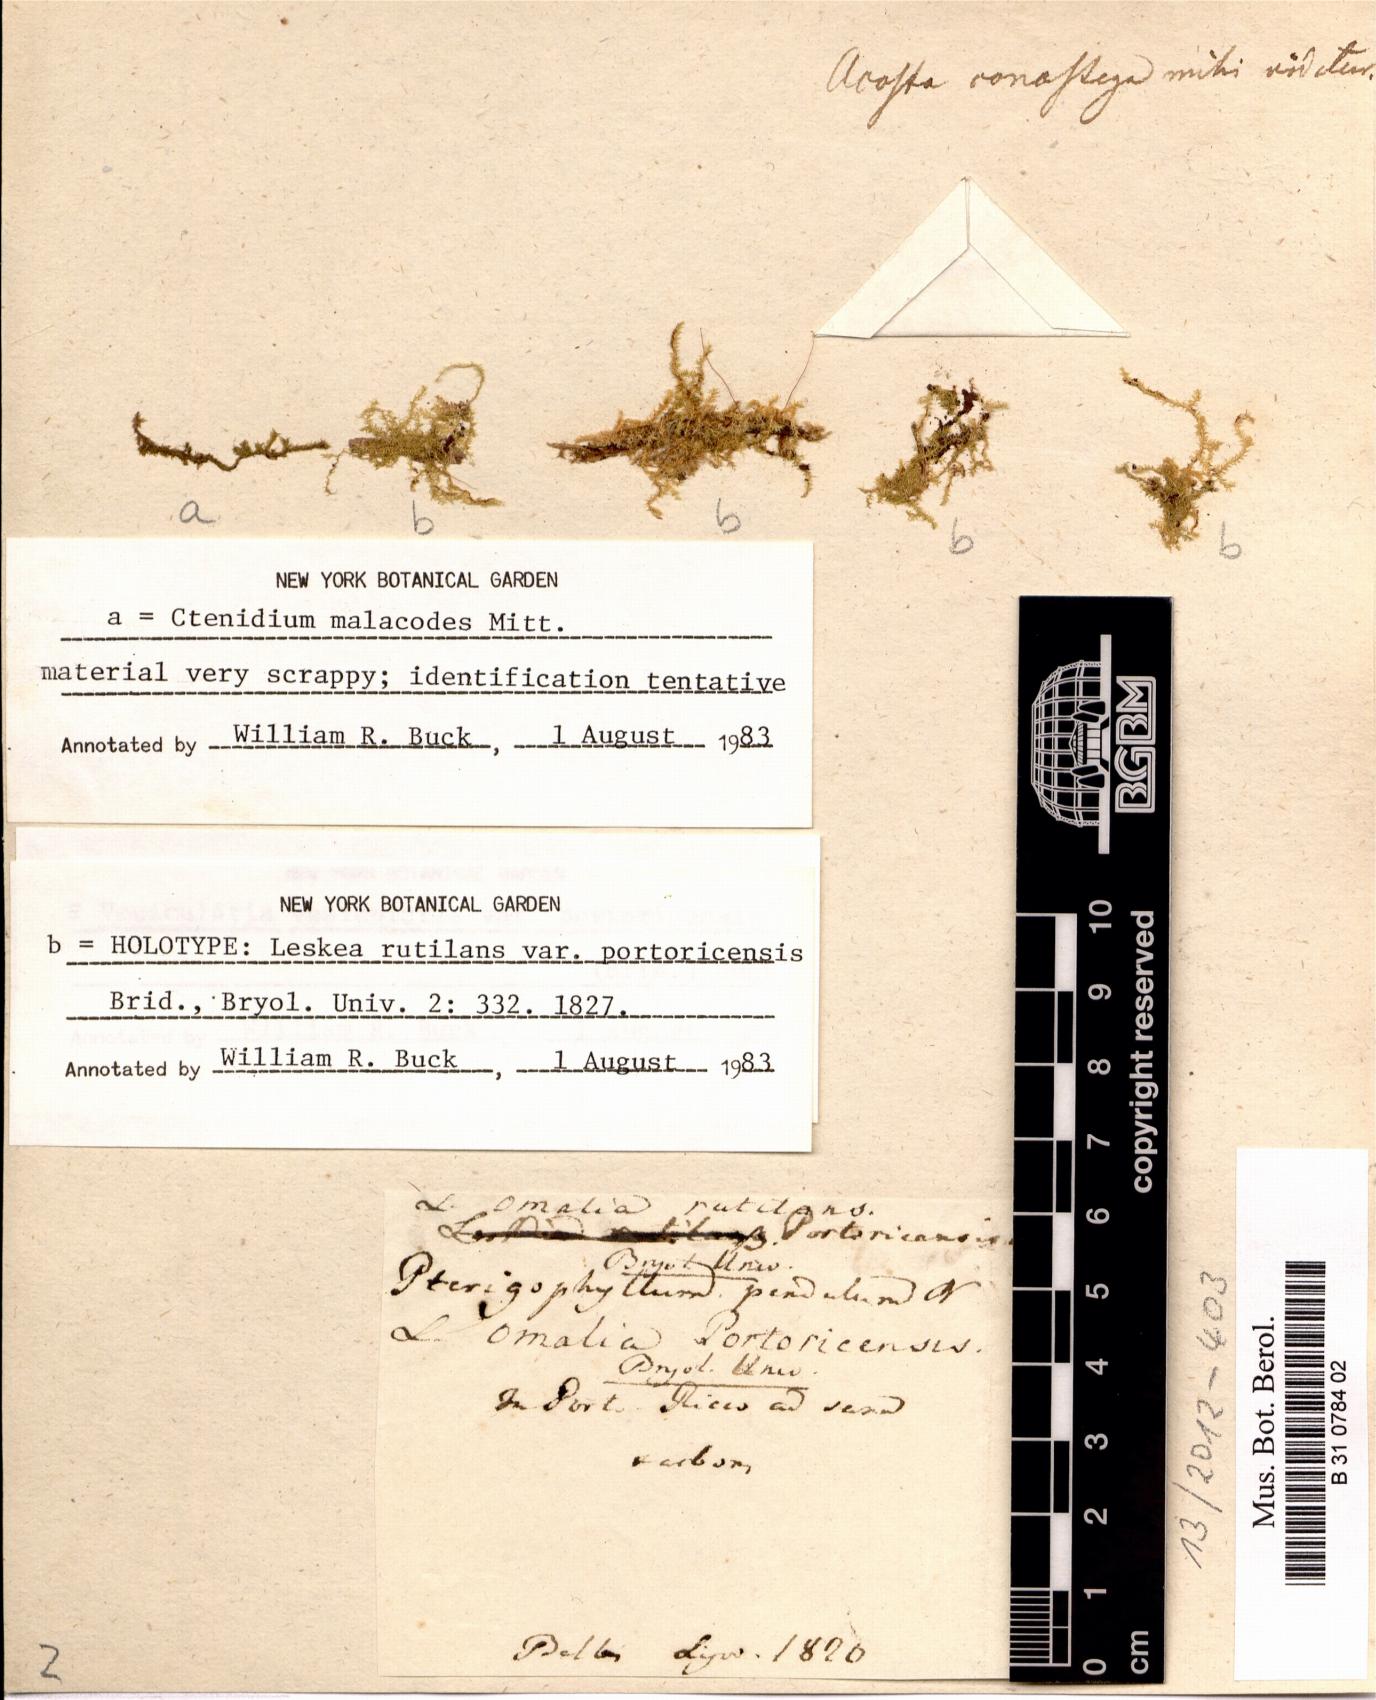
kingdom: Plantae
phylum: Bryophyta
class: Bryopsida
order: Hypnales
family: Hypnaceae
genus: Vesicularia
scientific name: Vesicularia vesicularis
